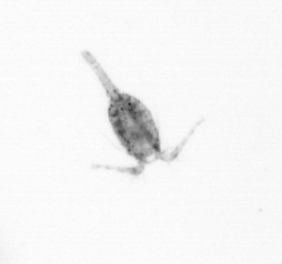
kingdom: Animalia
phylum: Arthropoda
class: Copepoda
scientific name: Copepoda
